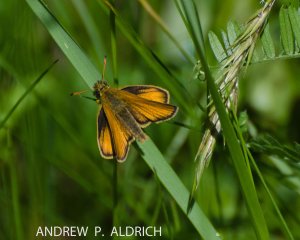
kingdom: Animalia
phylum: Arthropoda
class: Insecta
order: Lepidoptera
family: Hesperiidae
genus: Atrytone
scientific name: Atrytone delaware
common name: Delaware Skipper
